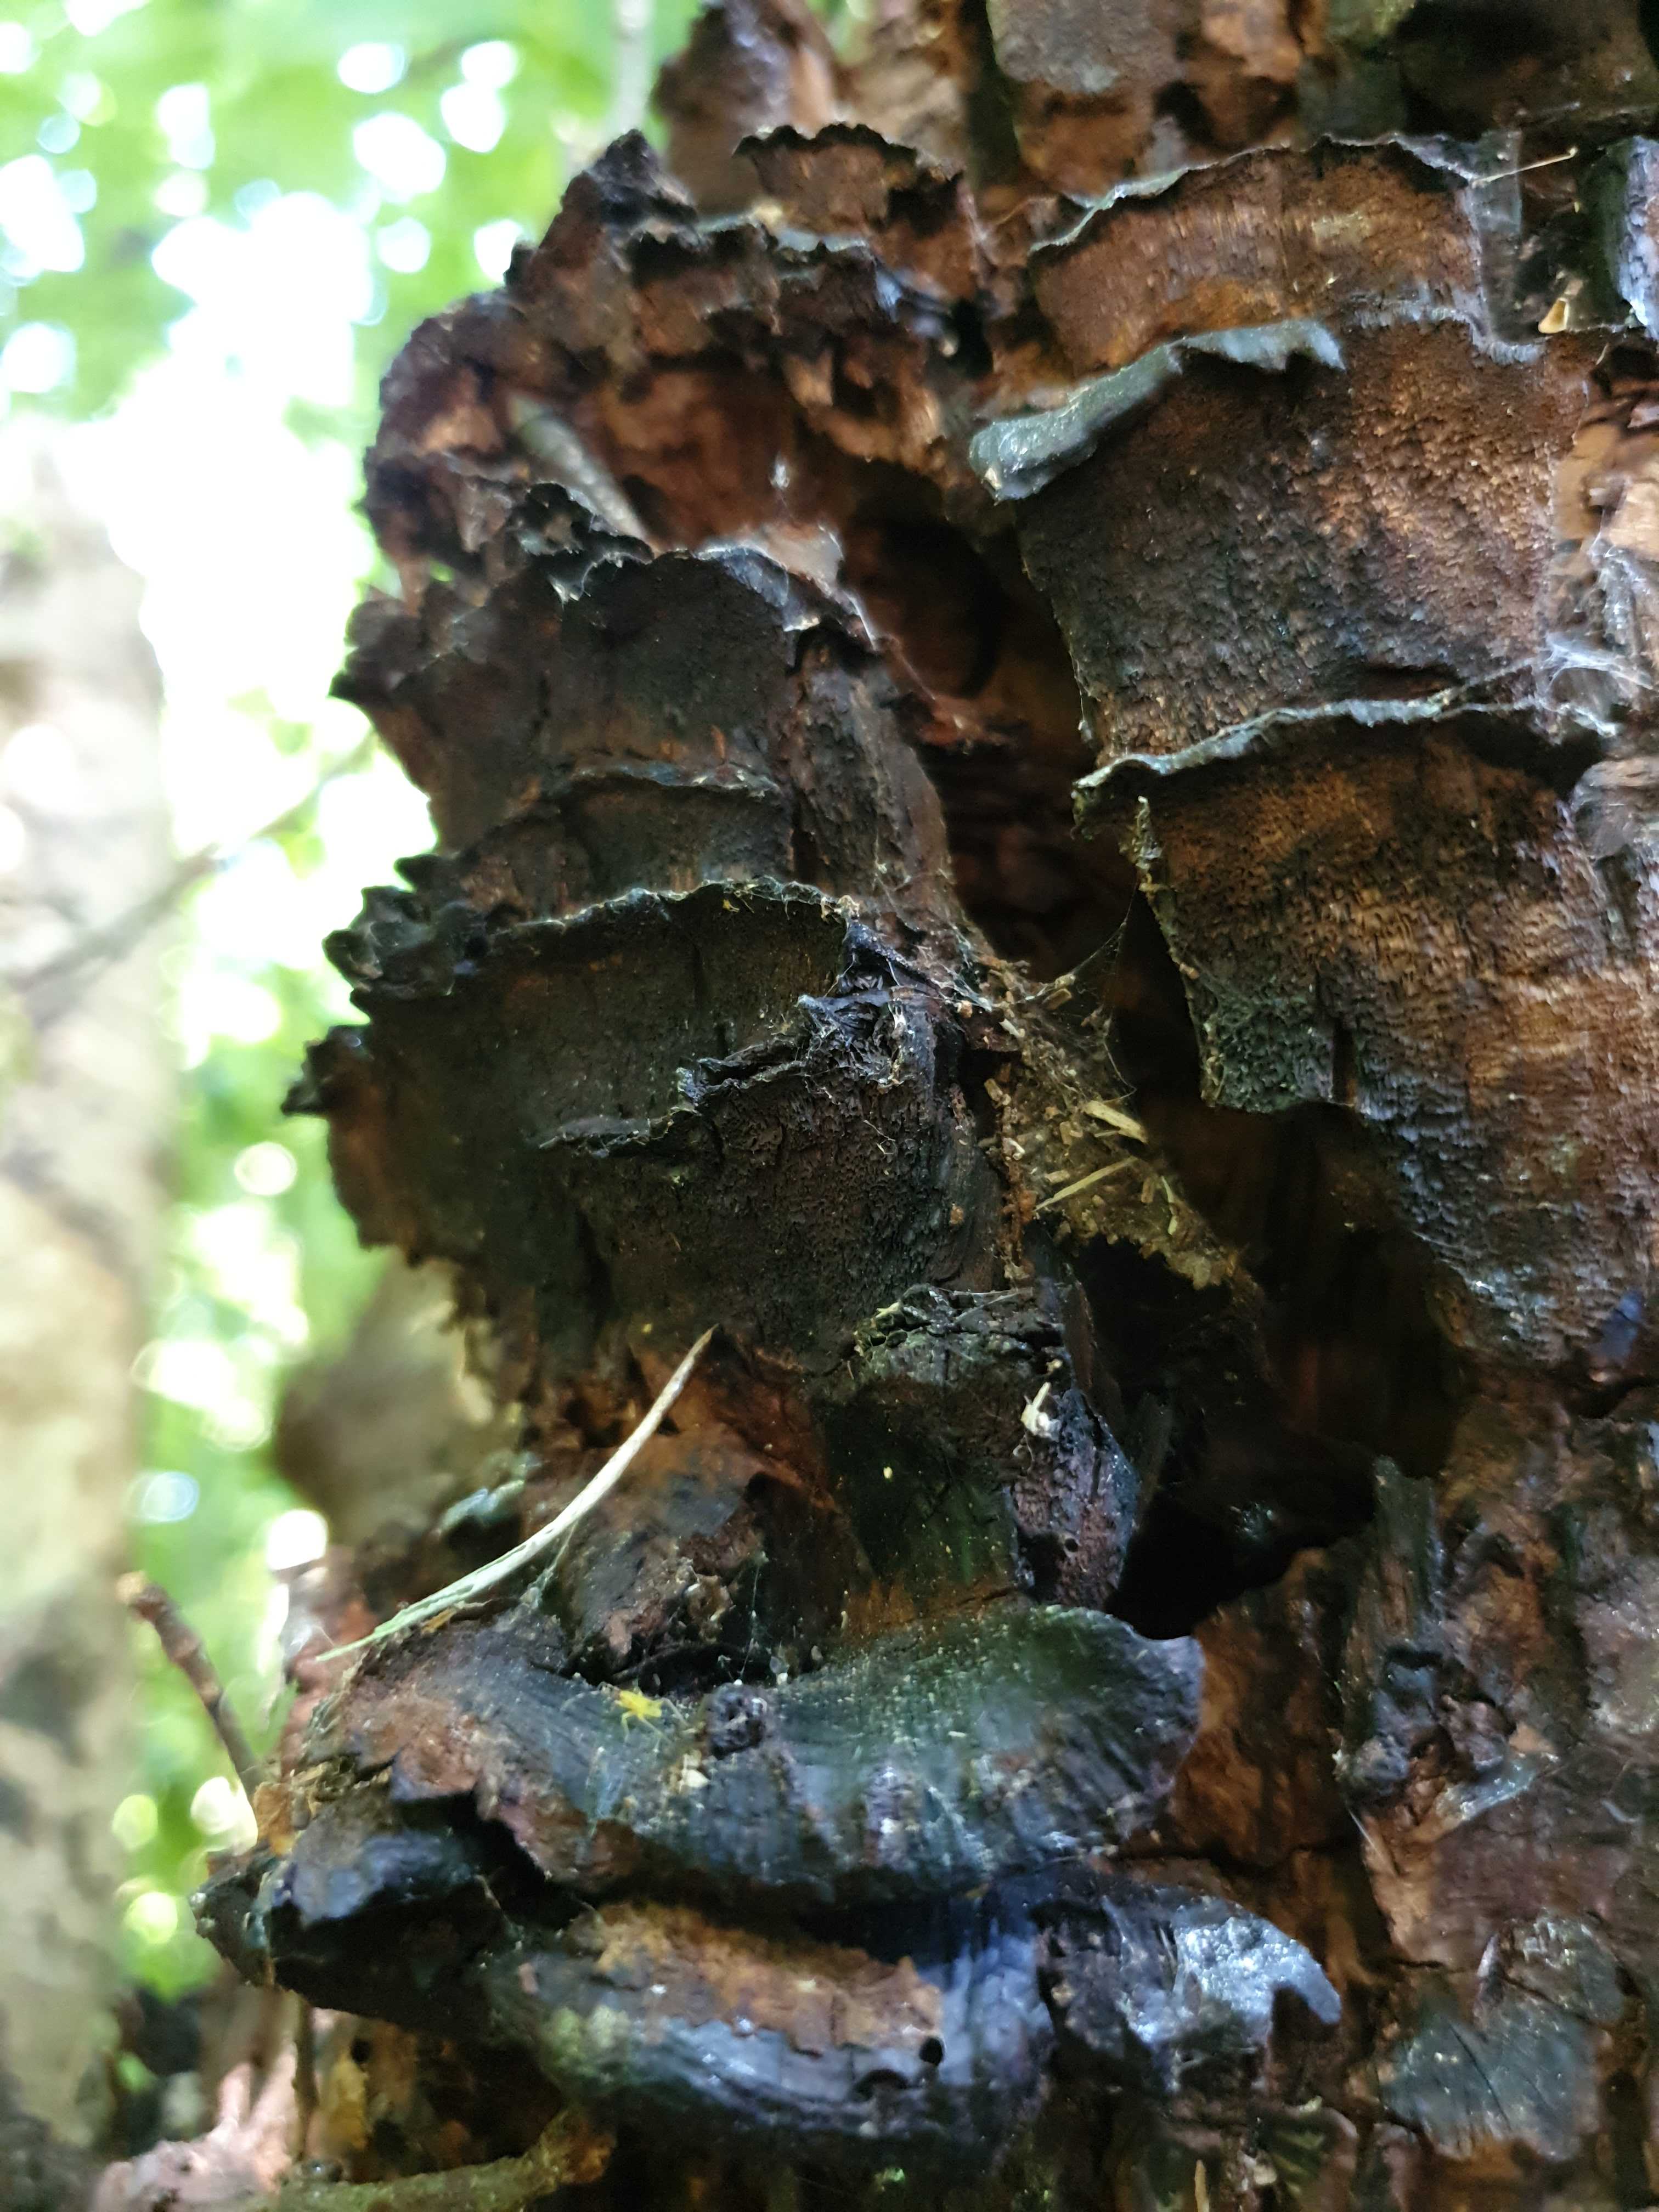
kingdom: Fungi
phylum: Basidiomycota
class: Agaricomycetes
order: Hymenochaetales
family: Hymenochaetaceae
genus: Xanthoporia
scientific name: Xanthoporia radiata
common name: elle-spejlporesvamp
